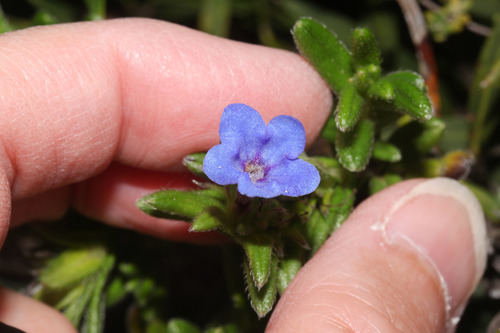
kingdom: Plantae
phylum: Tracheophyta
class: Magnoliopsida
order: Boraginales
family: Boraginaceae
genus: Glandora
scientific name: Glandora prostrata
